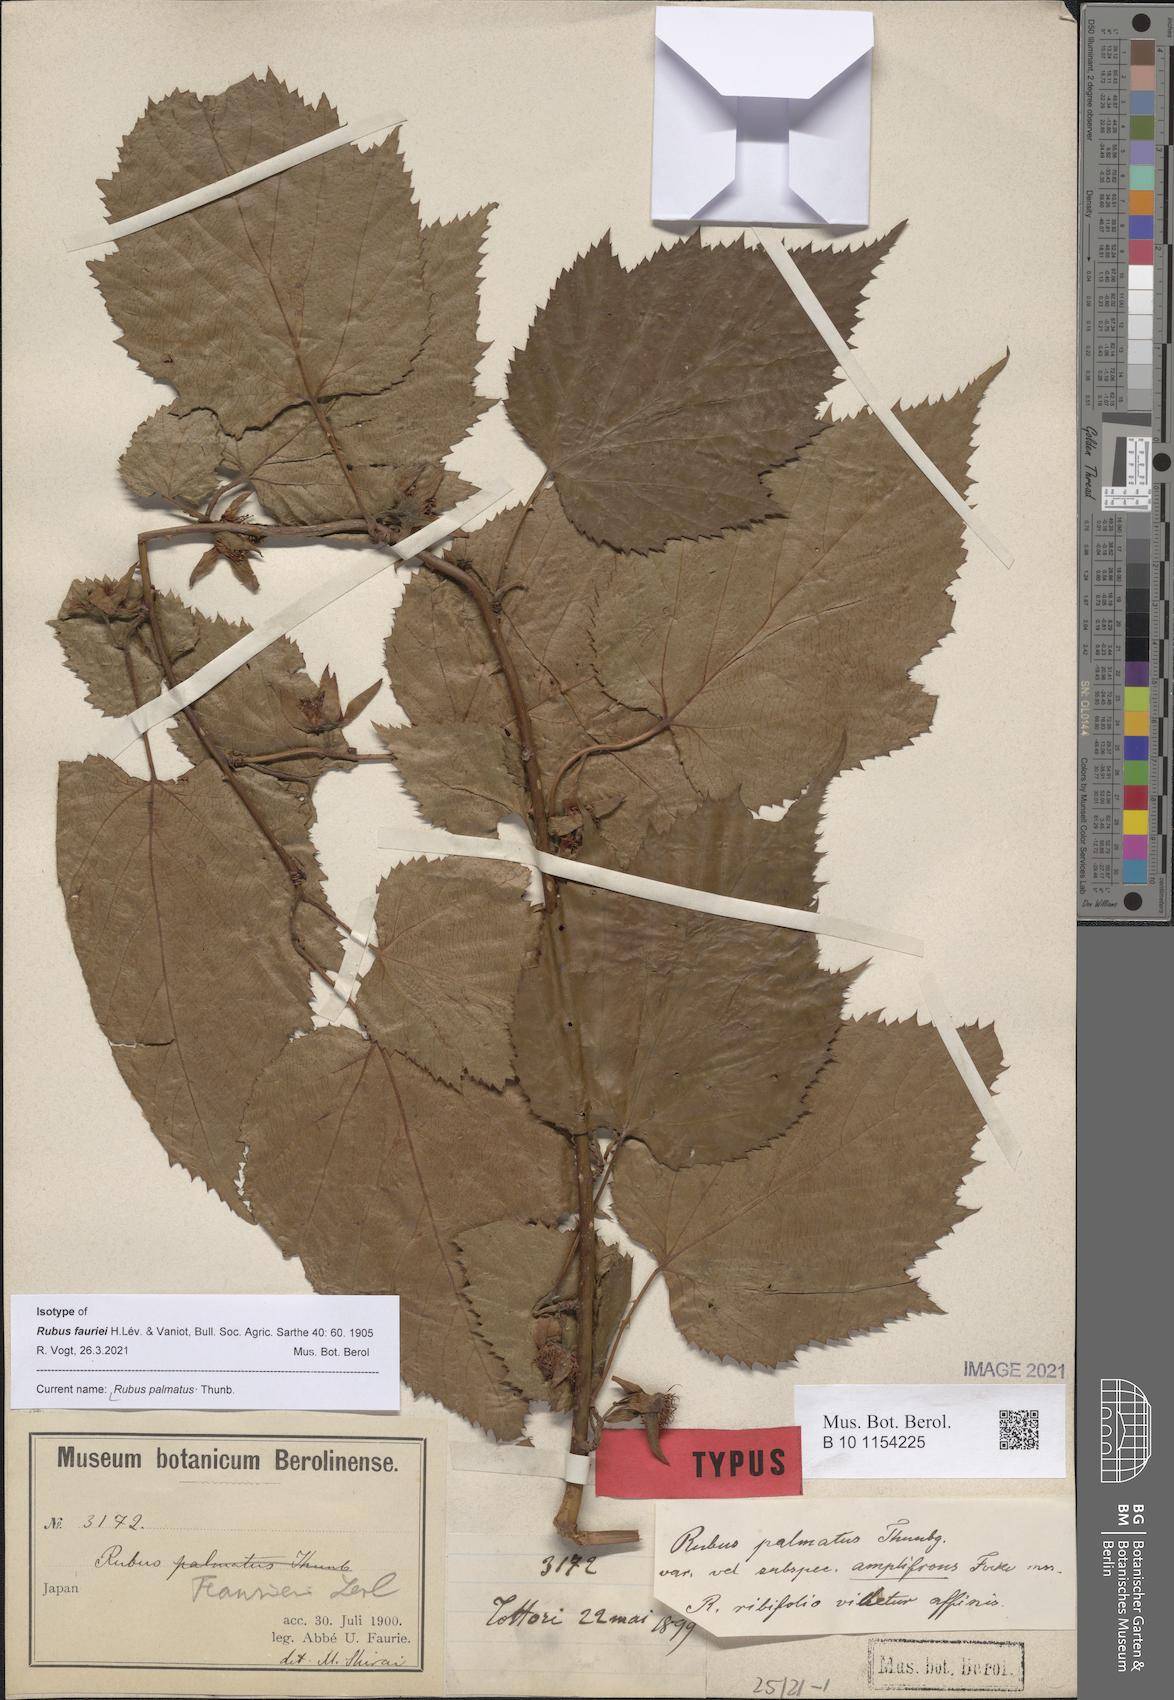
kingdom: Plantae
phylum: Tracheophyta
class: Magnoliopsida
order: Rosales
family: Rosaceae
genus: Rubus
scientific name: Rubus palmatus
